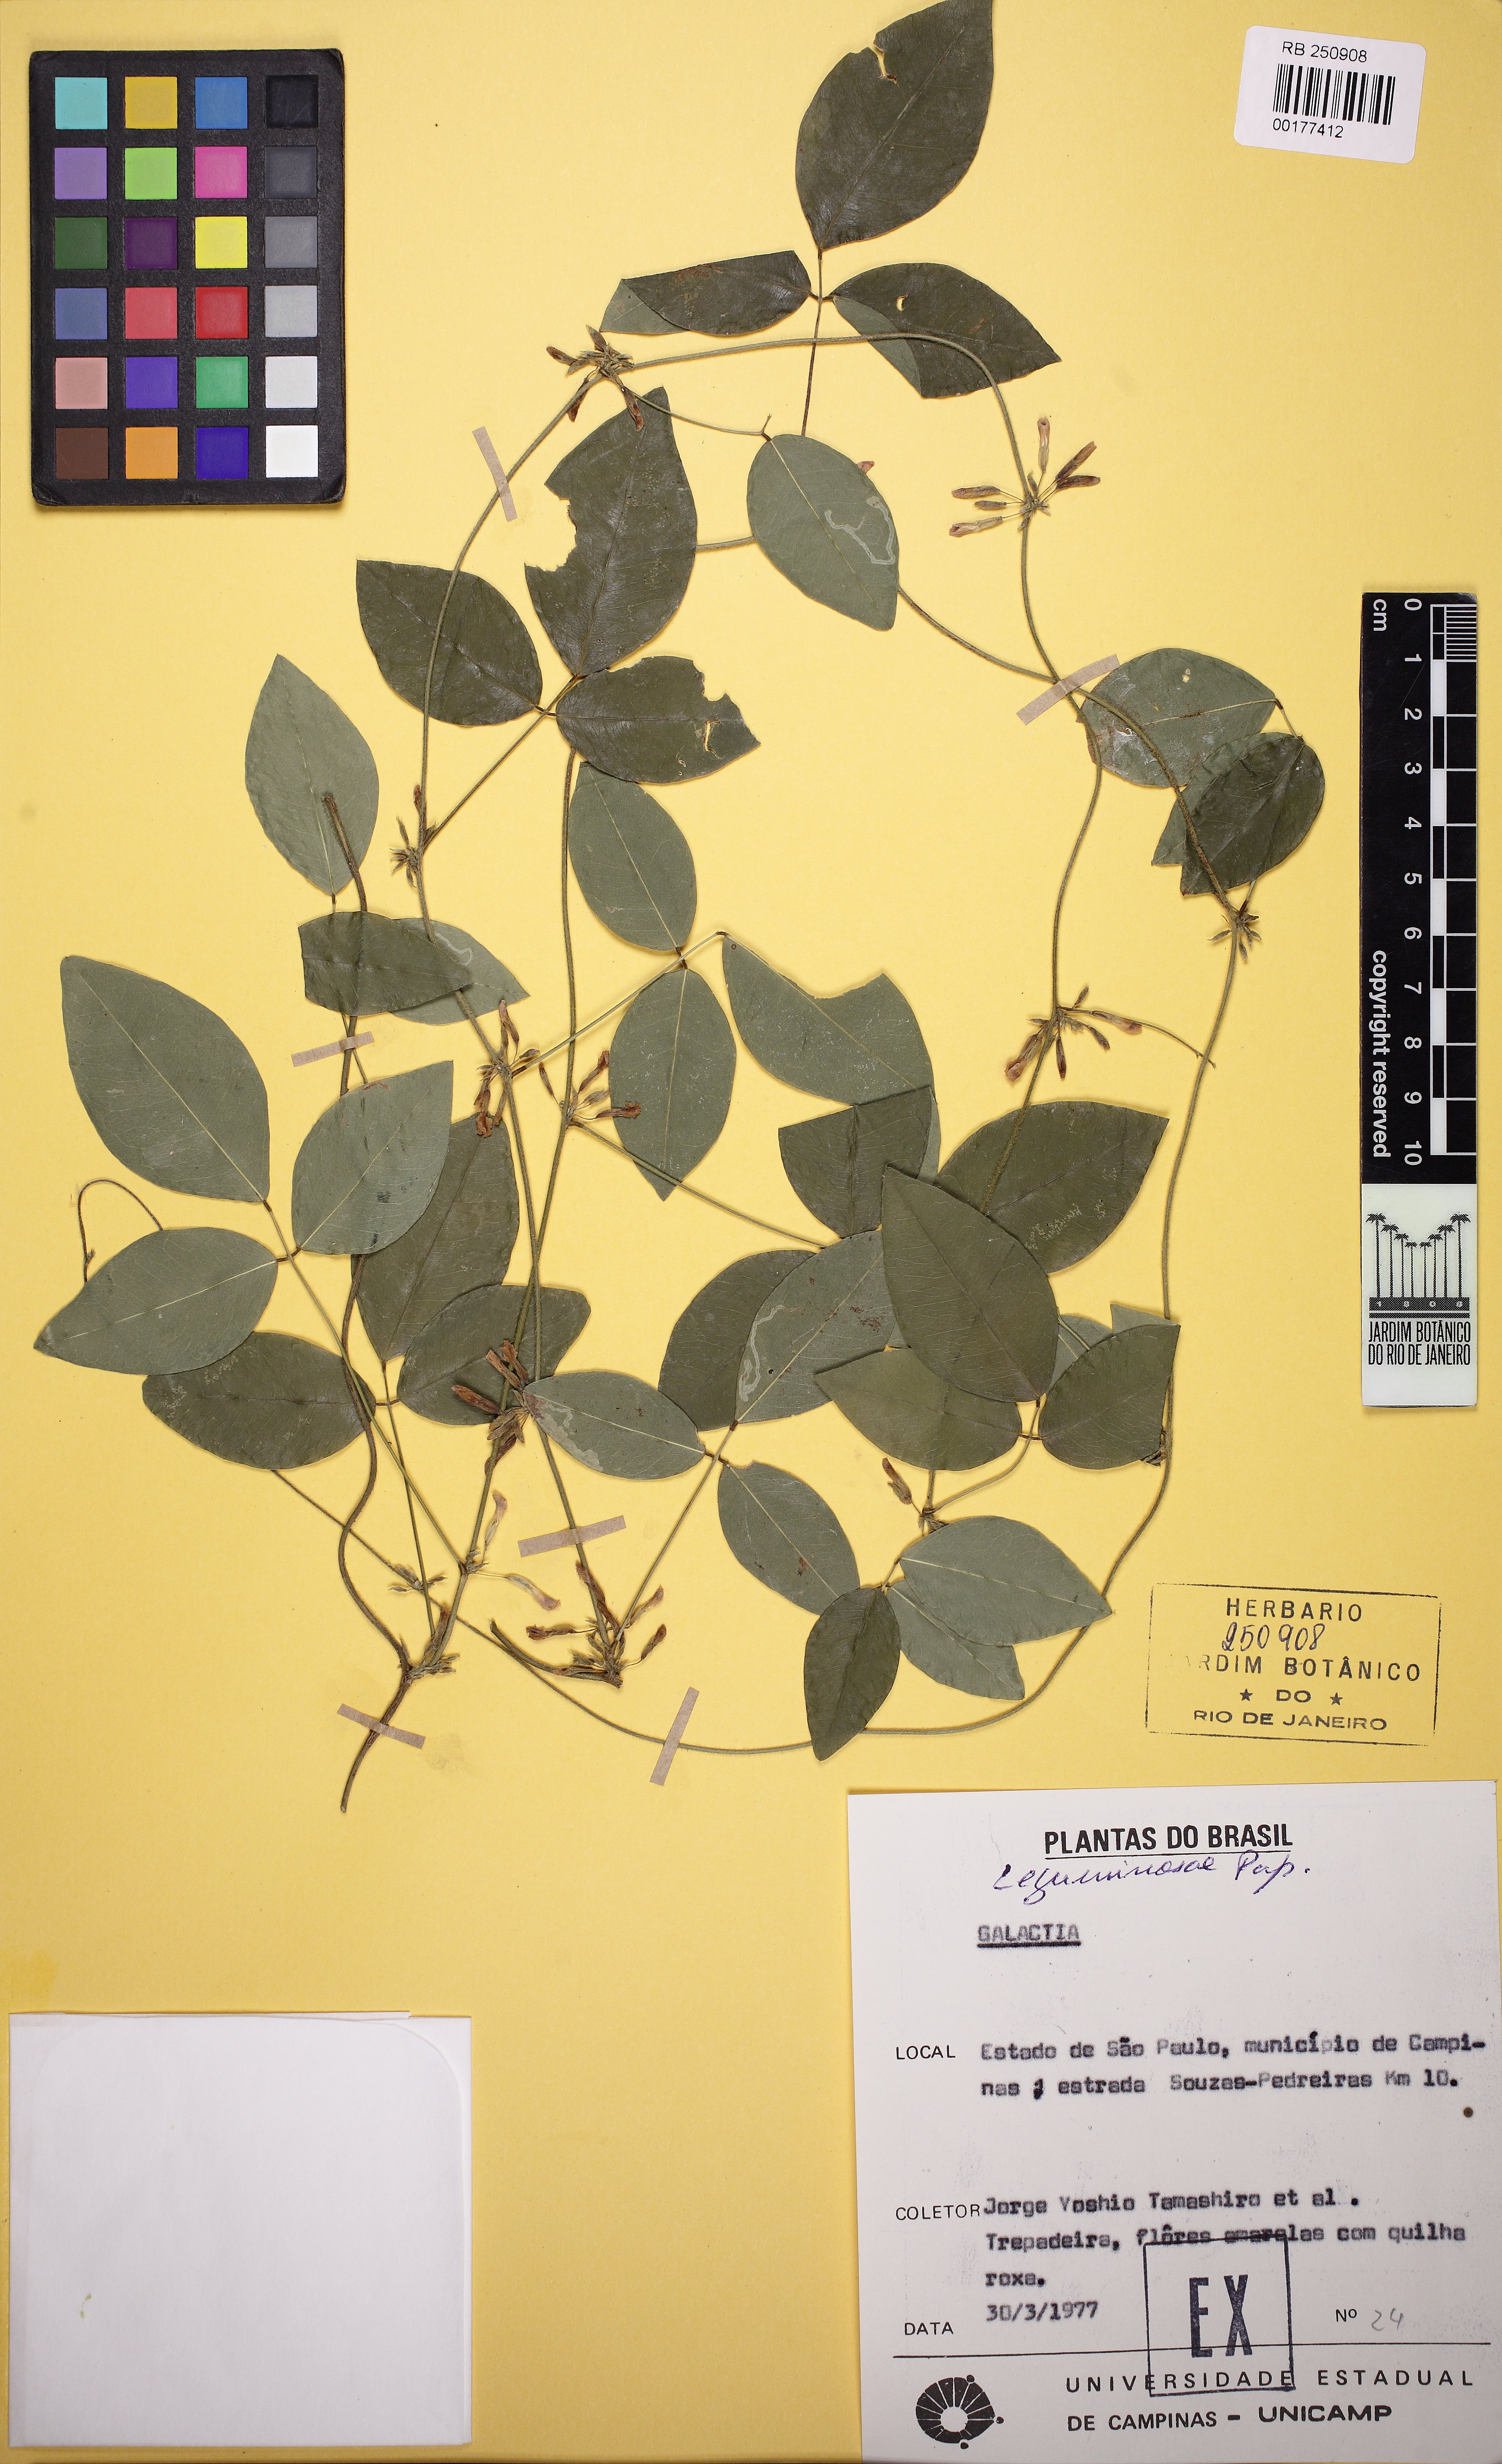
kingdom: Plantae
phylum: Tracheophyta
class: Magnoliopsida
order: Fabales
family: Fabaceae
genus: Galactia
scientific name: Galactia
